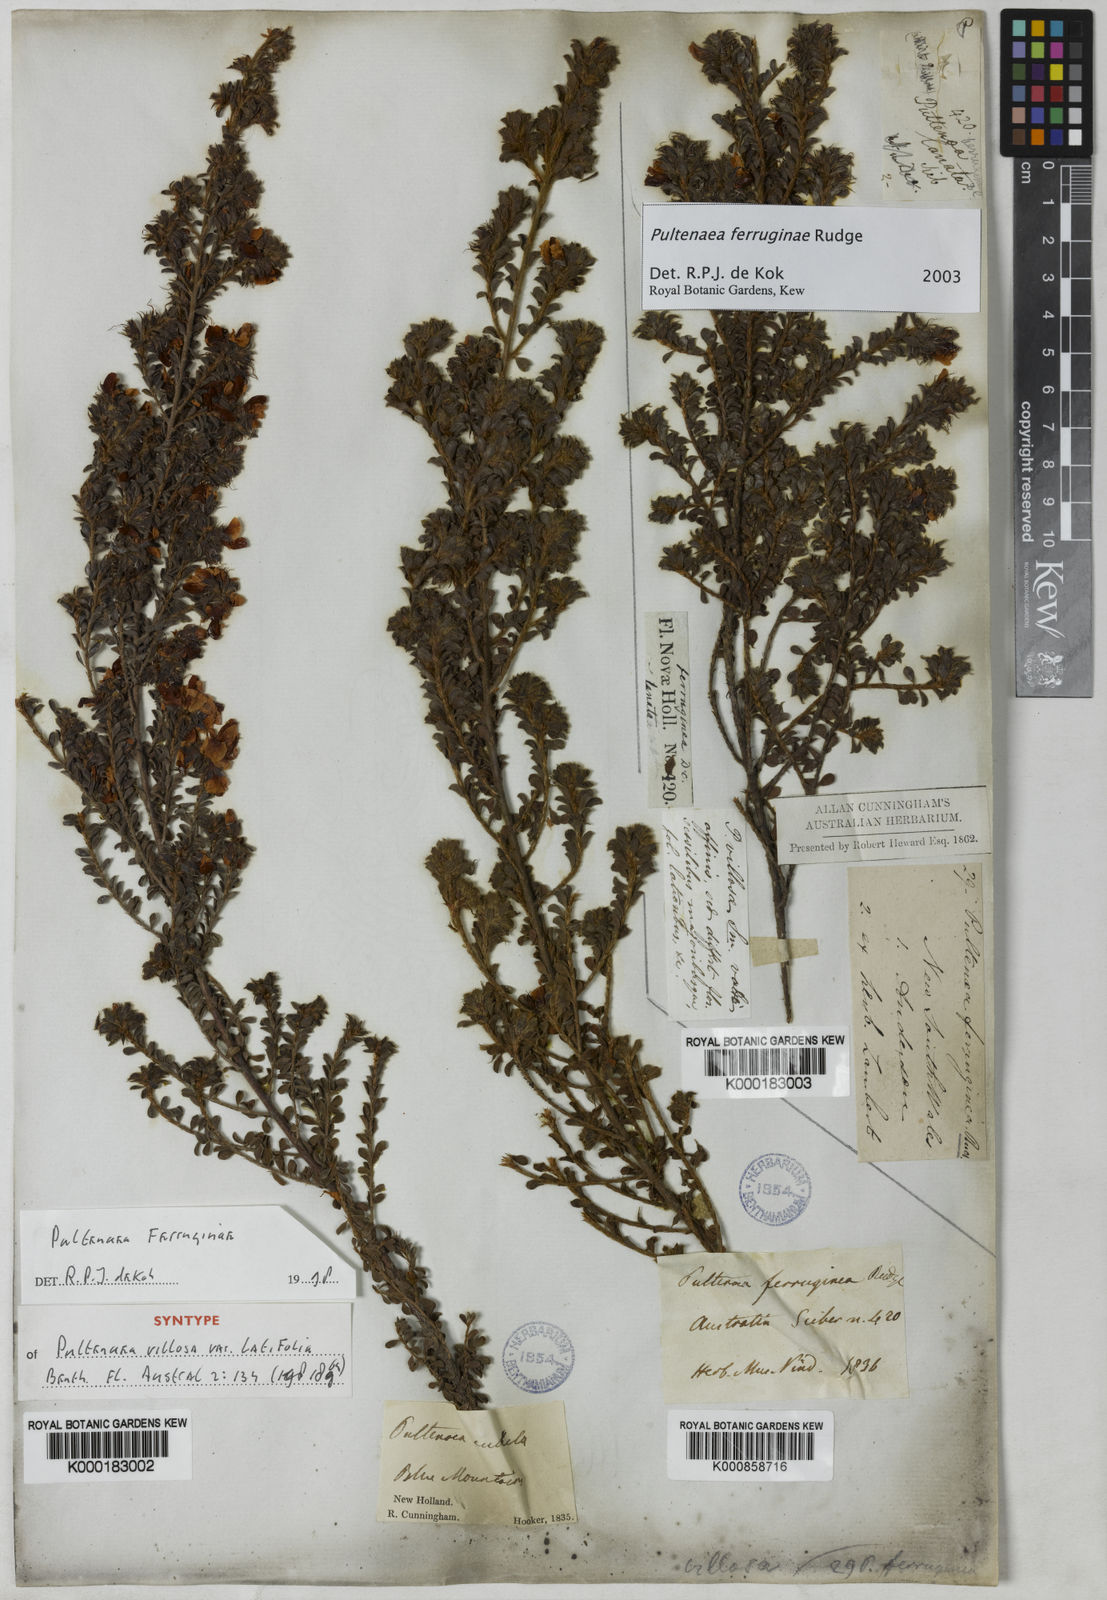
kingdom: Plantae
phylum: Tracheophyta
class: Magnoliopsida
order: Fabales
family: Fabaceae
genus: Pultenaea
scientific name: Pultenaea ferruginea
